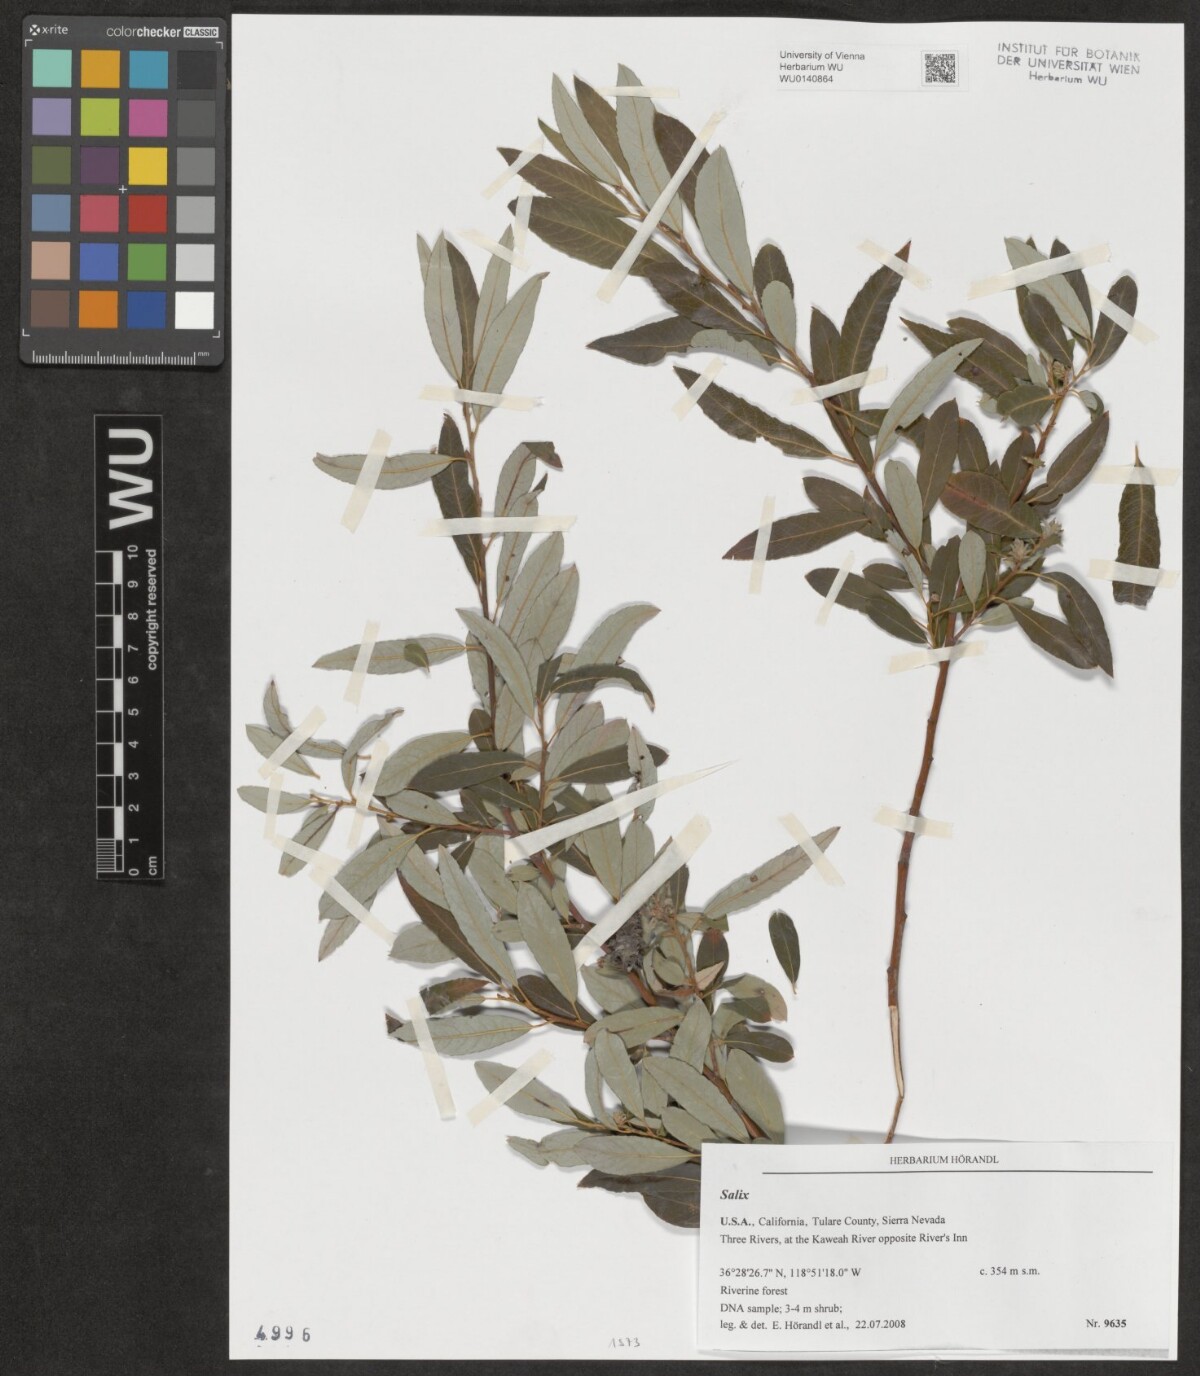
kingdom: Plantae
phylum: Tracheophyta
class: Magnoliopsida
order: Malpighiales
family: Salicaceae
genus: Salix
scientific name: Salix
